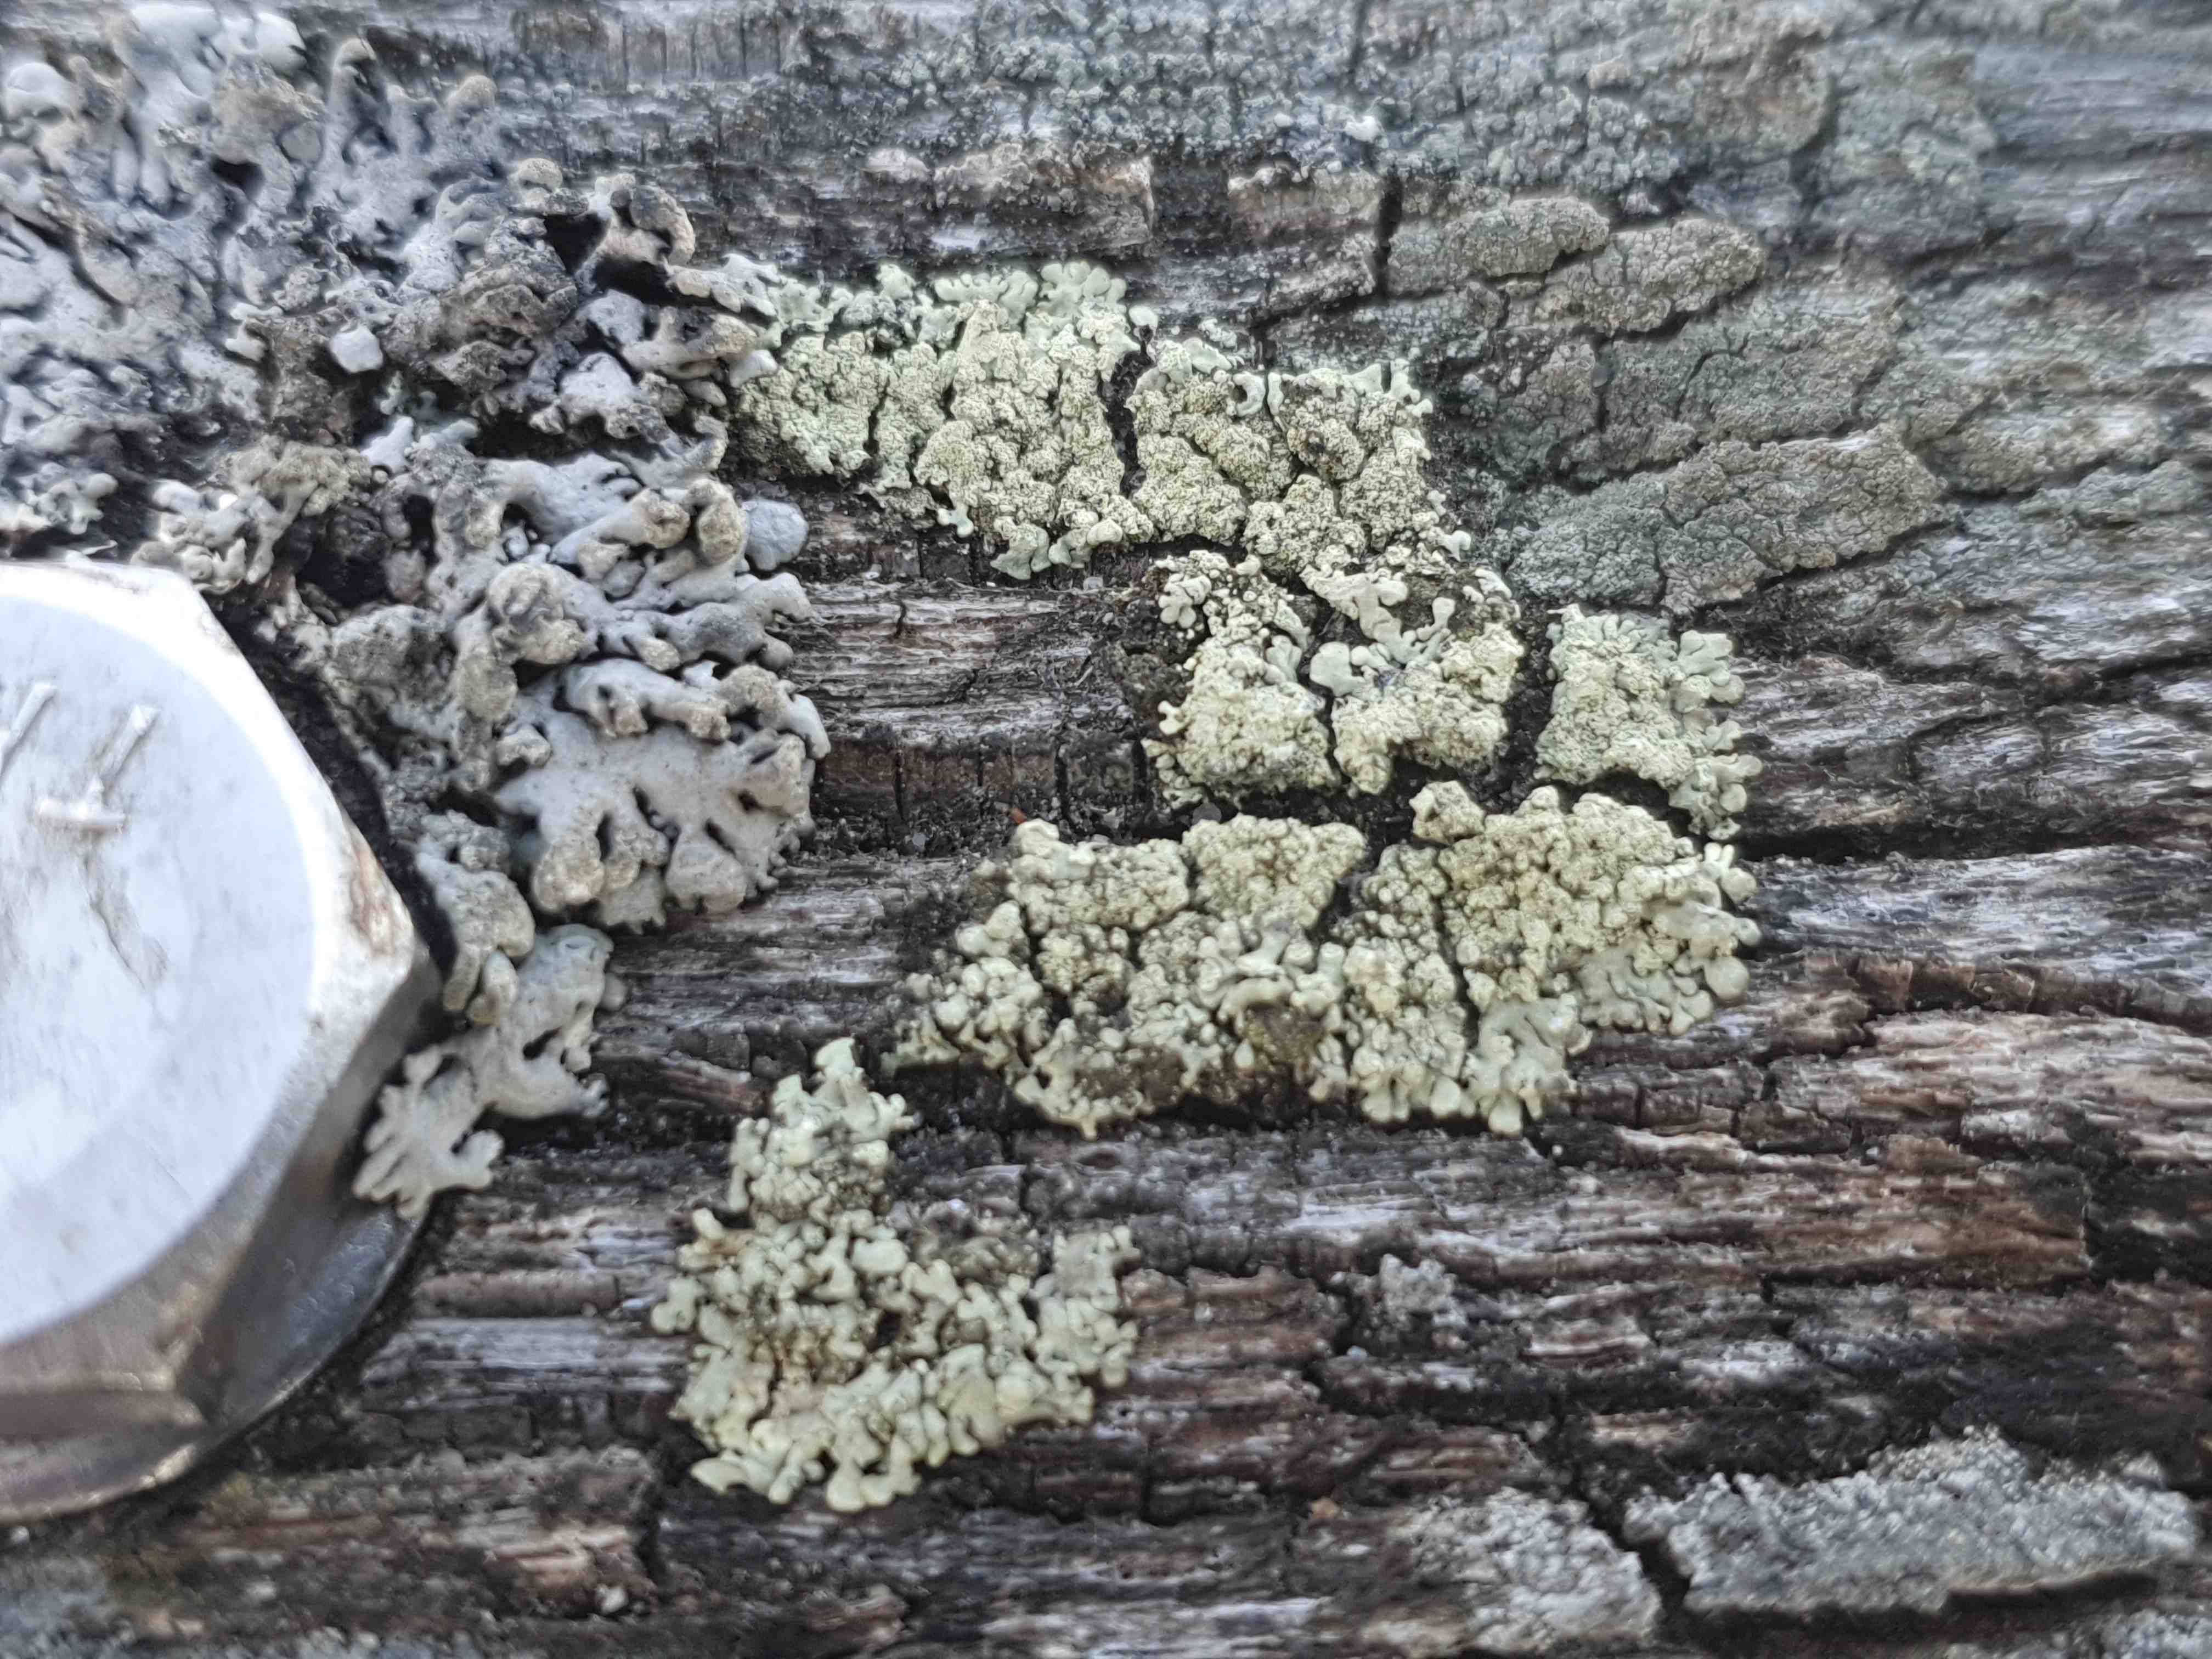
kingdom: Fungi
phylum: Ascomycota
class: Lecanoromycetes
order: Lecanorales
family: Parmeliaceae
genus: Parmeliopsis
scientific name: Parmeliopsis ambigua
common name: gul stolpelav
